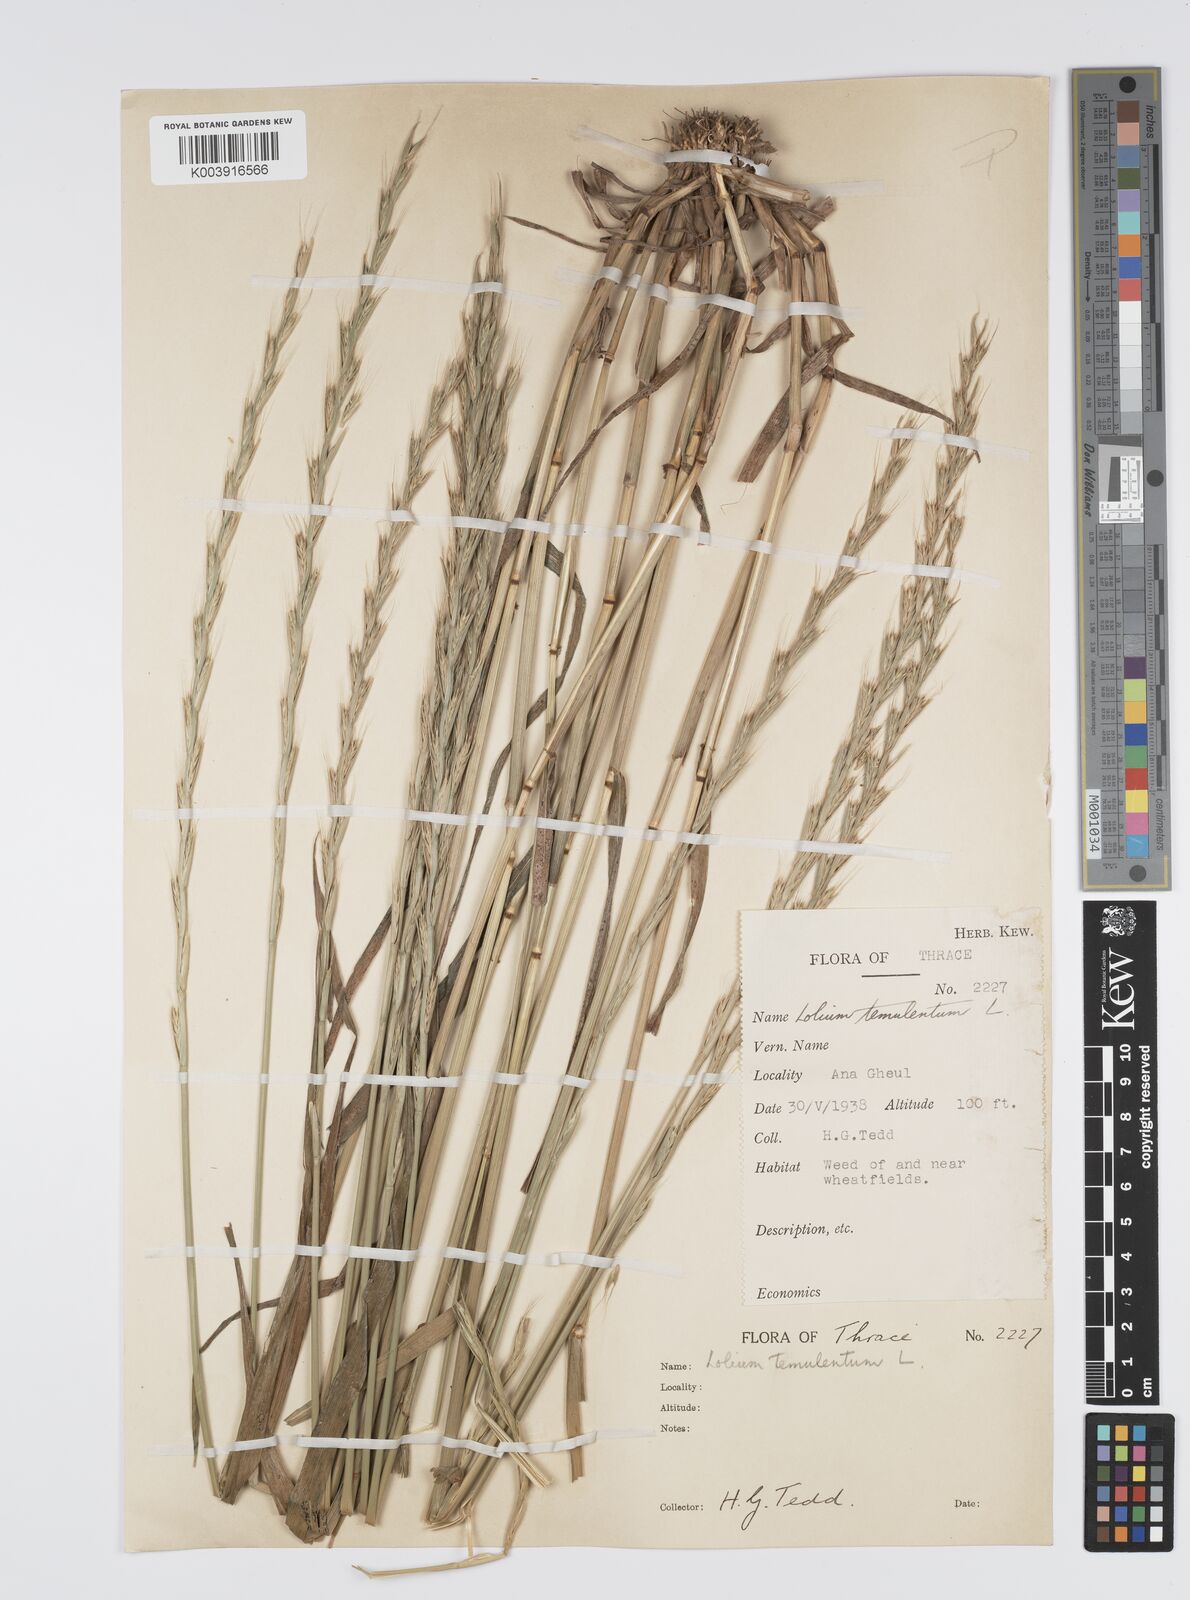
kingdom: Plantae
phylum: Tracheophyta
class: Liliopsida
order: Poales
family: Poaceae
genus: Lolium
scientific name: Lolium temulentum
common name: Darnel
